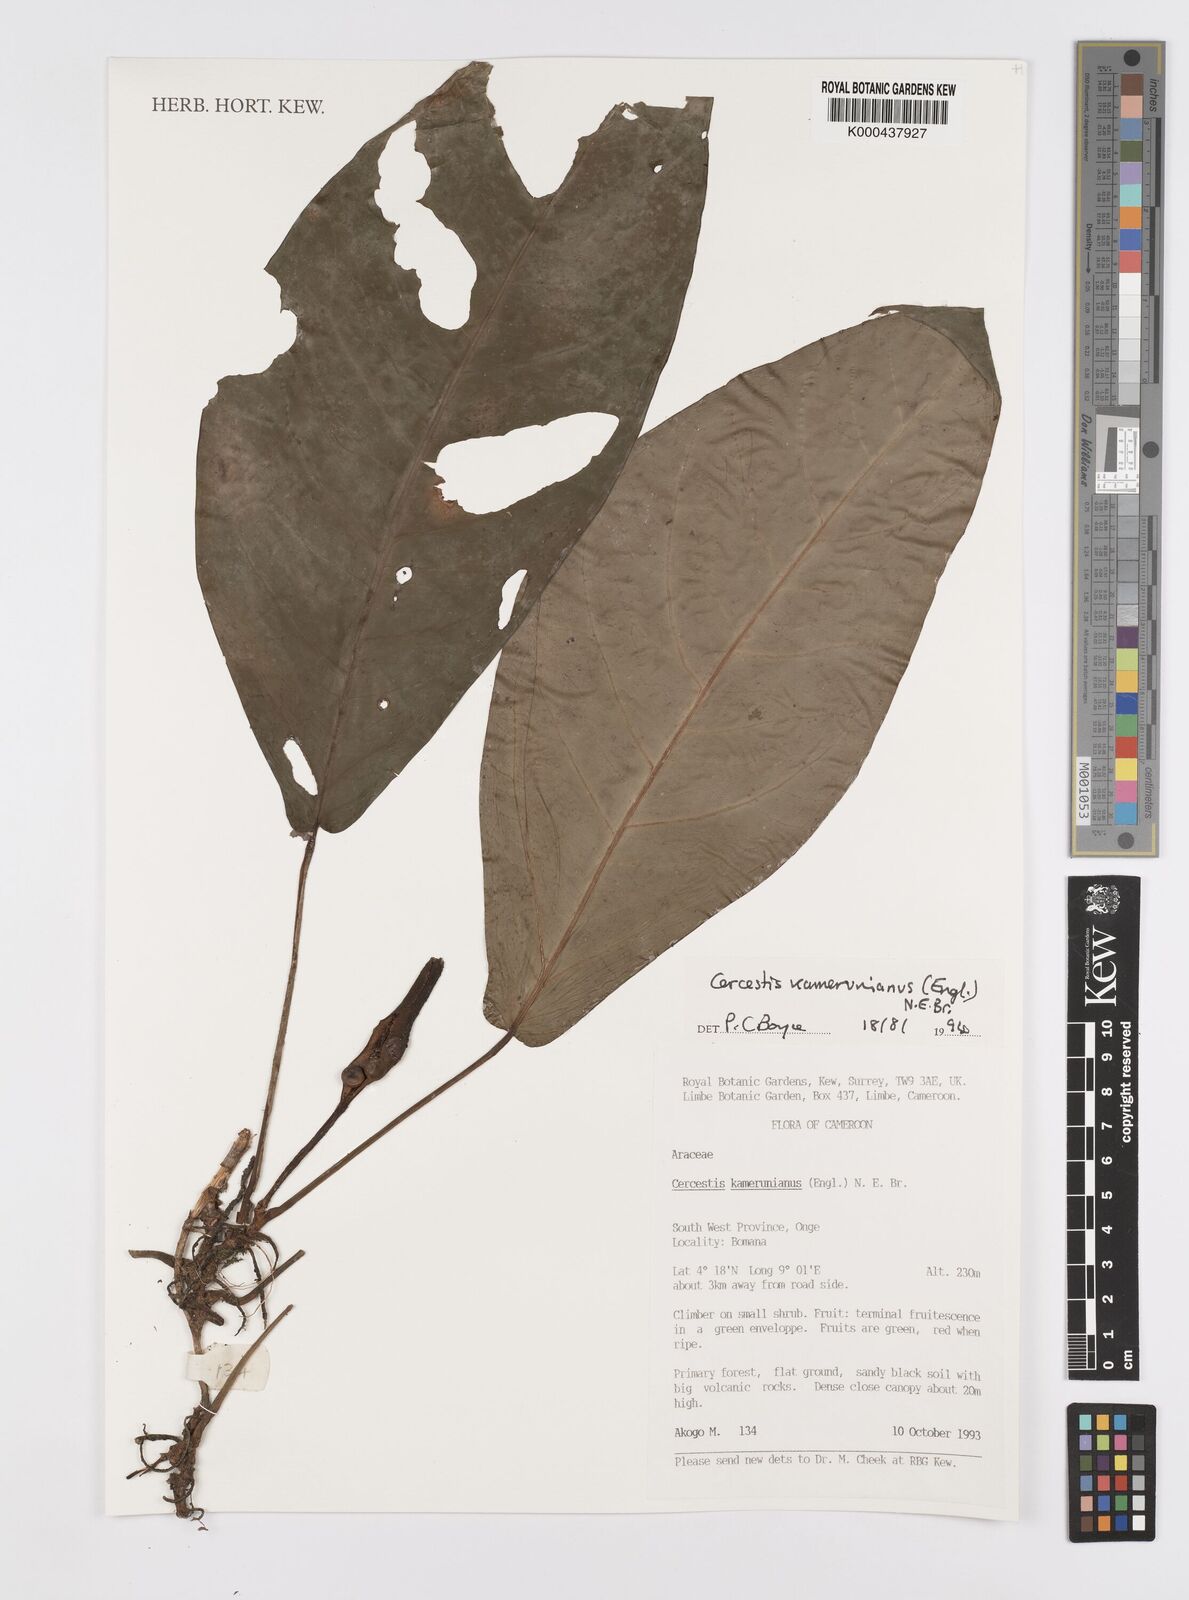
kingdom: Plantae
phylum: Tracheophyta
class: Liliopsida
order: Alismatales
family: Araceae
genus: Cercestis
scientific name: Cercestis kamerunianus
